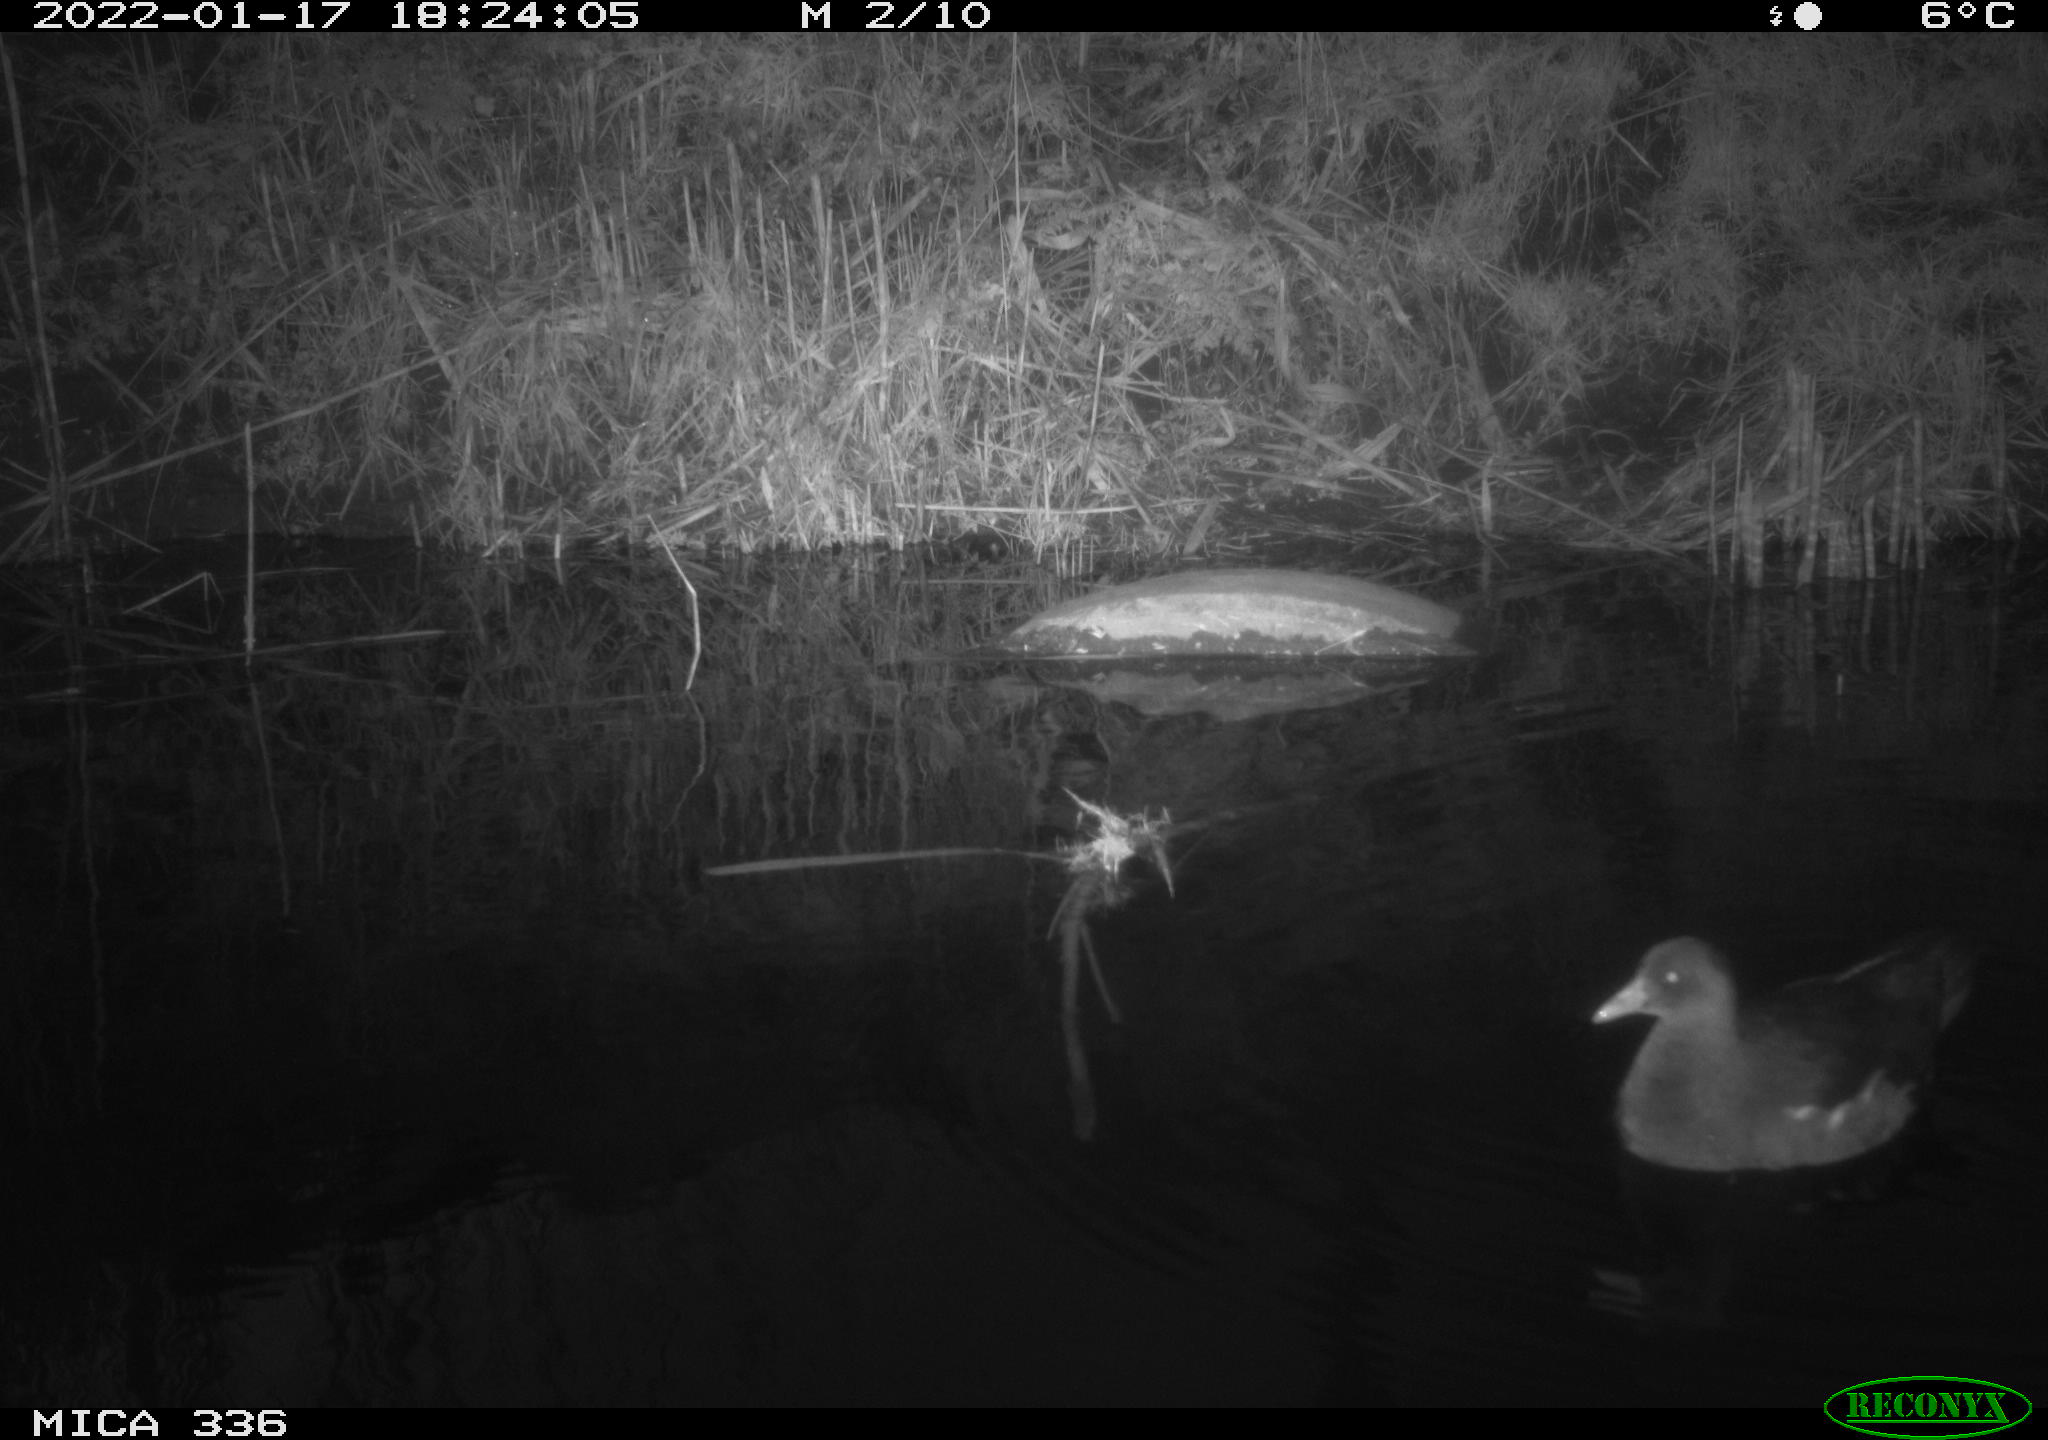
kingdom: Animalia
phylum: Chordata
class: Aves
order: Gruiformes
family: Rallidae
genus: Gallinula
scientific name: Gallinula chloropus
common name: Common moorhen
